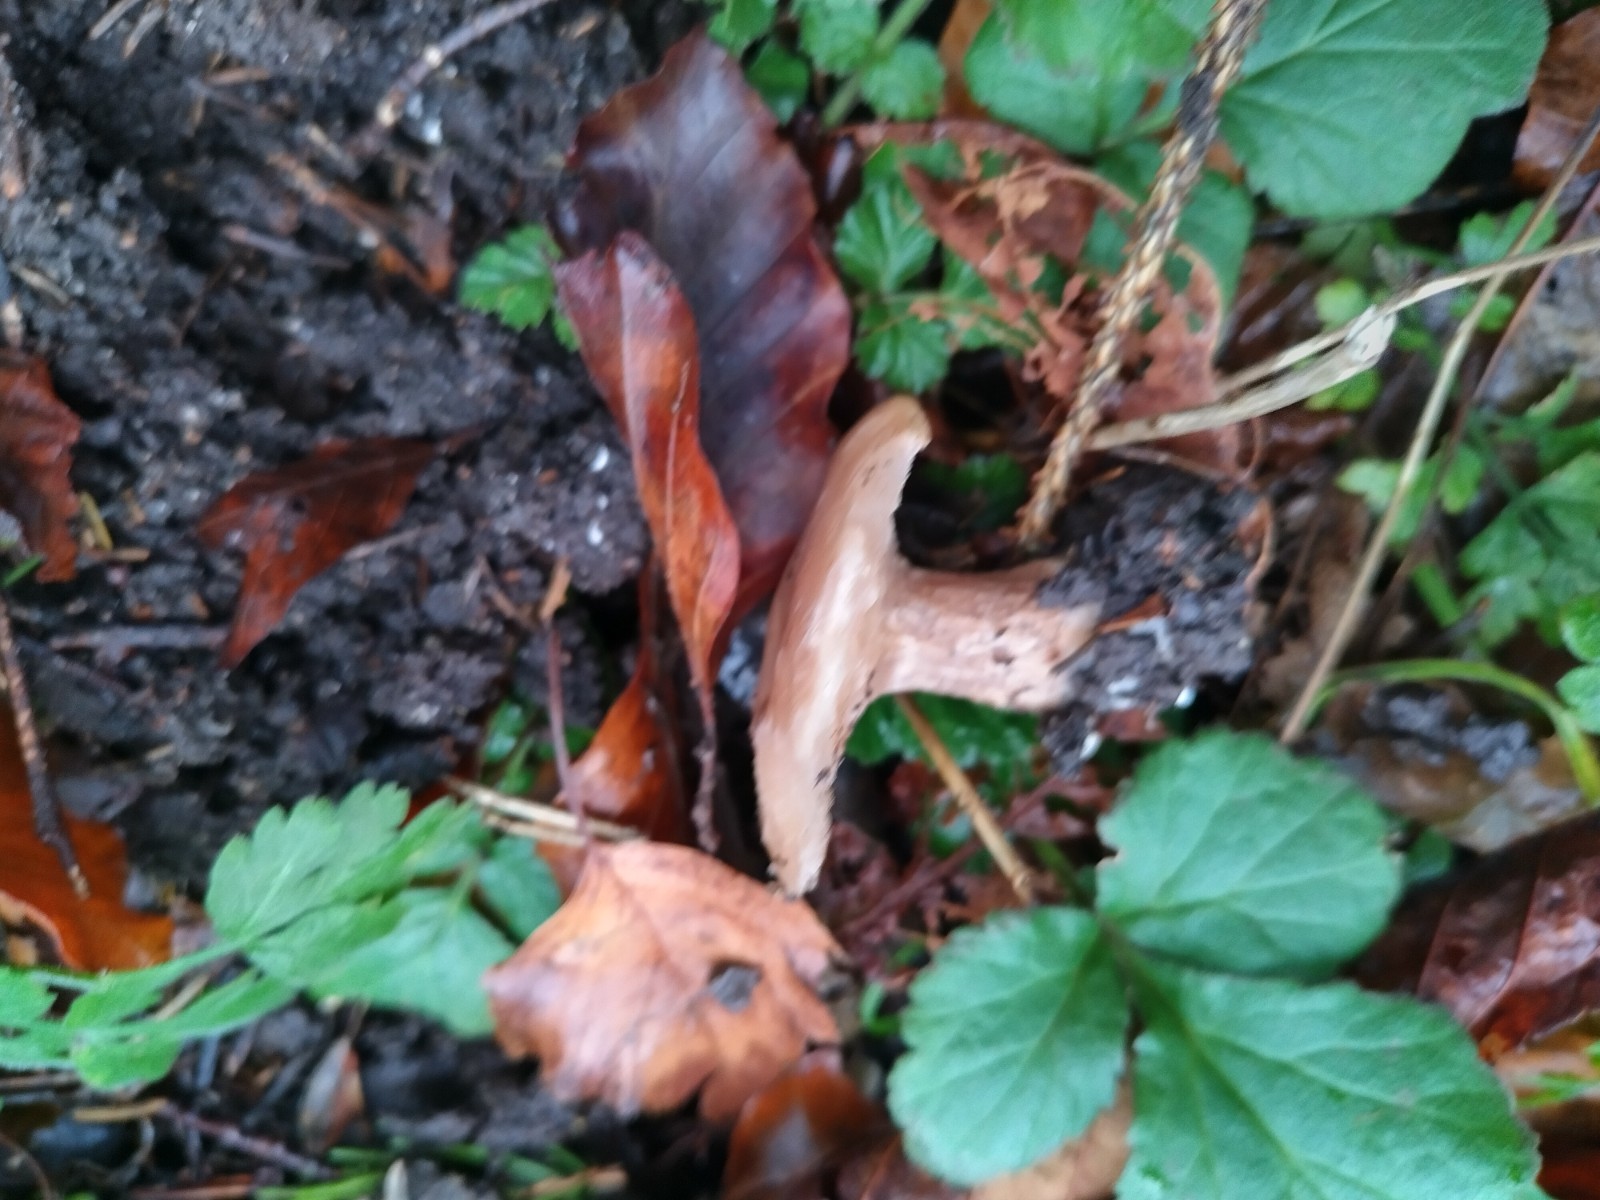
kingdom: Fungi
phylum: Basidiomycota
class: Agaricomycetes
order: Agaricales
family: Tricholomataceae
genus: Lepista
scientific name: Lepista personata
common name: bleg hekseringshat
